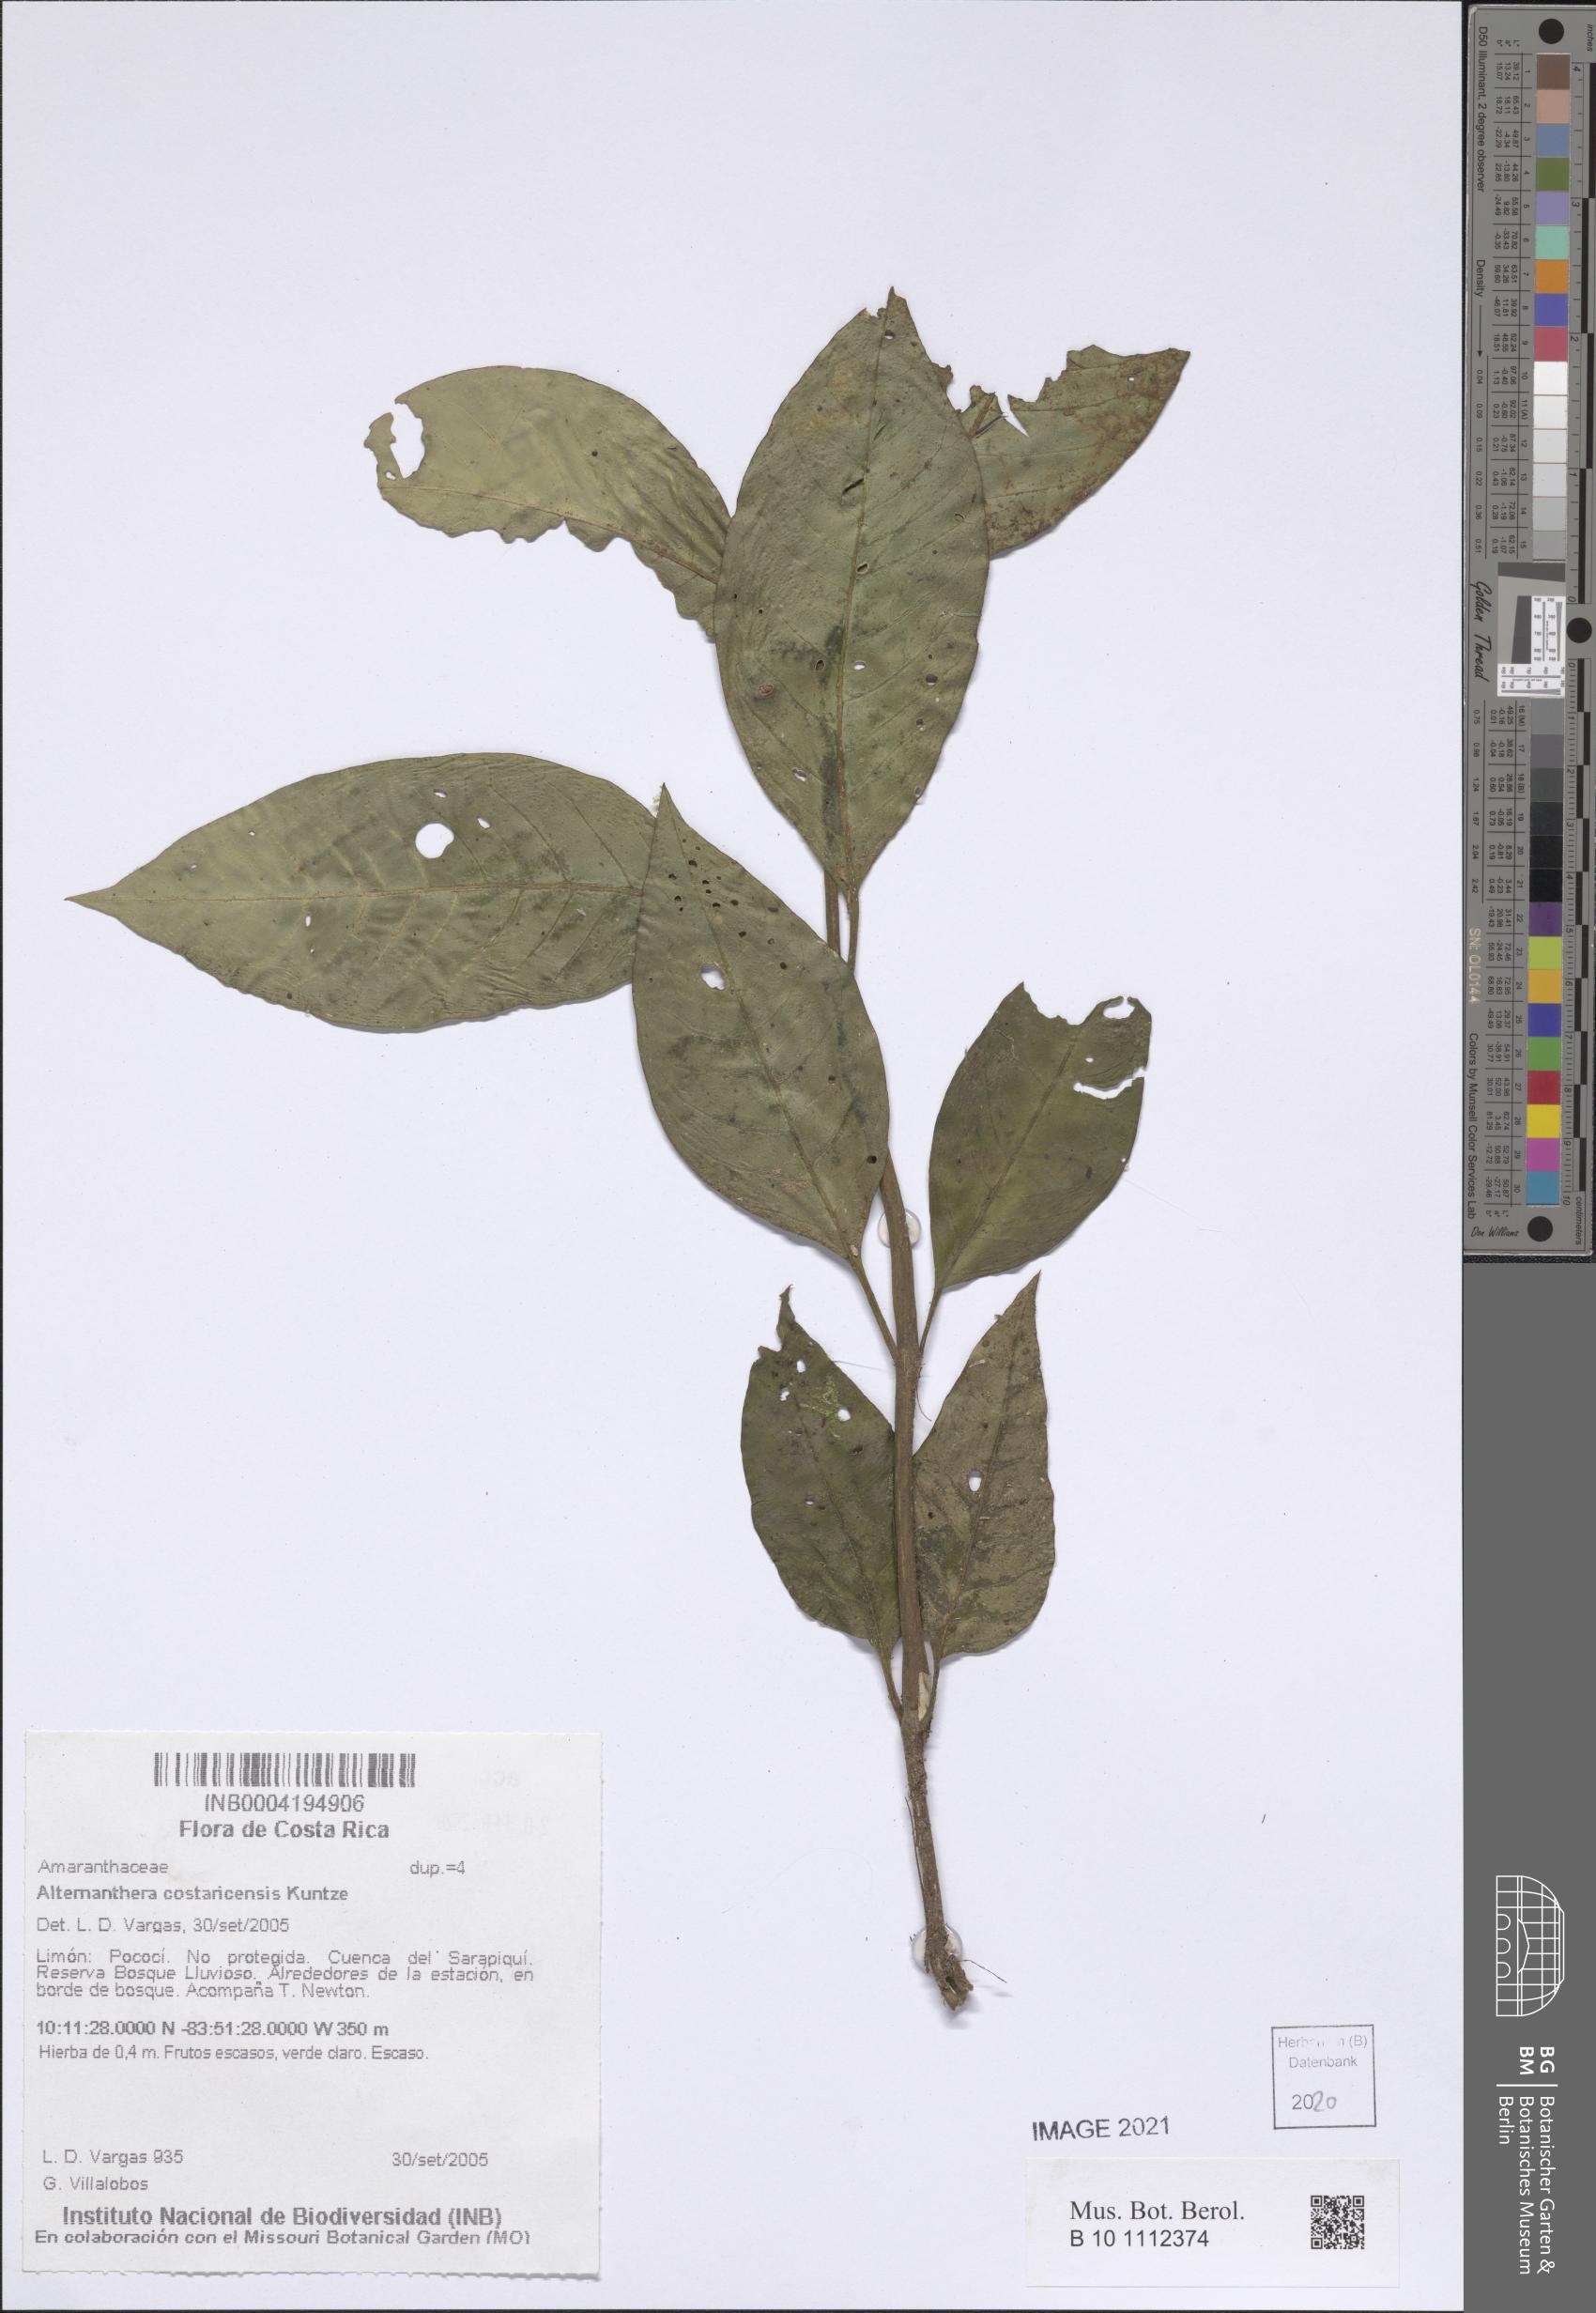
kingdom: Plantae
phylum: Tracheophyta
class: Magnoliopsida
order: Caryophyllales
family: Amaranthaceae
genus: Alternanthera
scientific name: Alternanthera costaricensis
